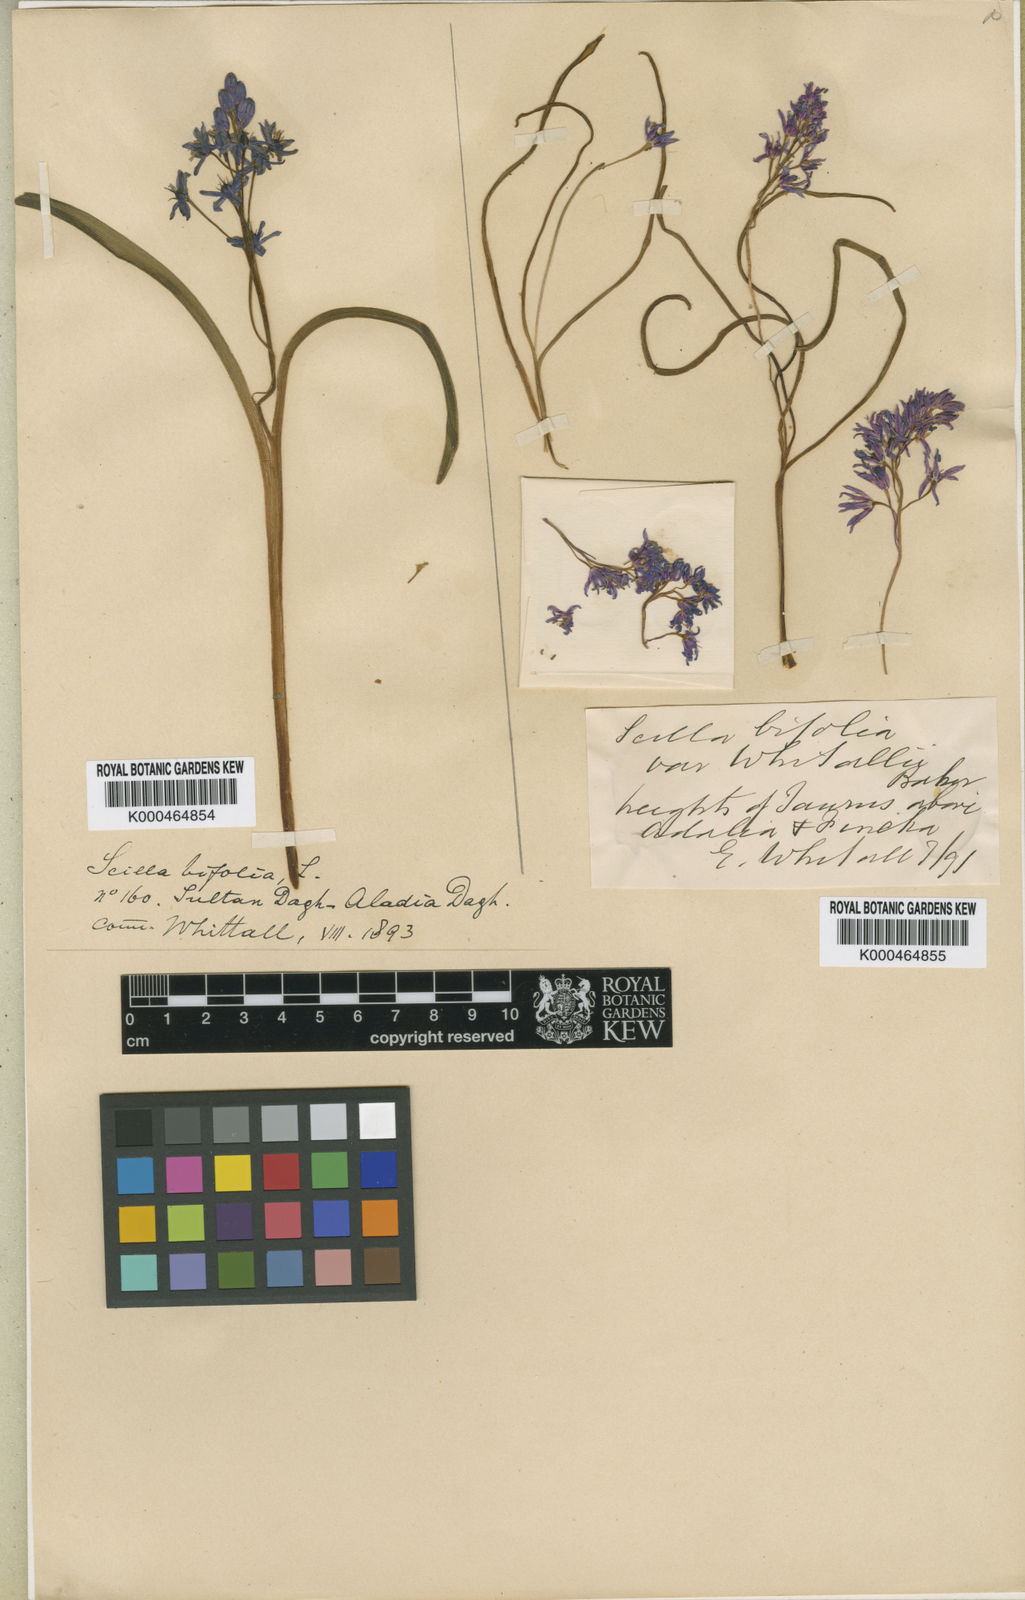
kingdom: Plantae
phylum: Tracheophyta
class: Liliopsida
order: Asparagales
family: Asparagaceae
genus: Scilla
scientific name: Scilla bifolia
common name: Alpine squill
